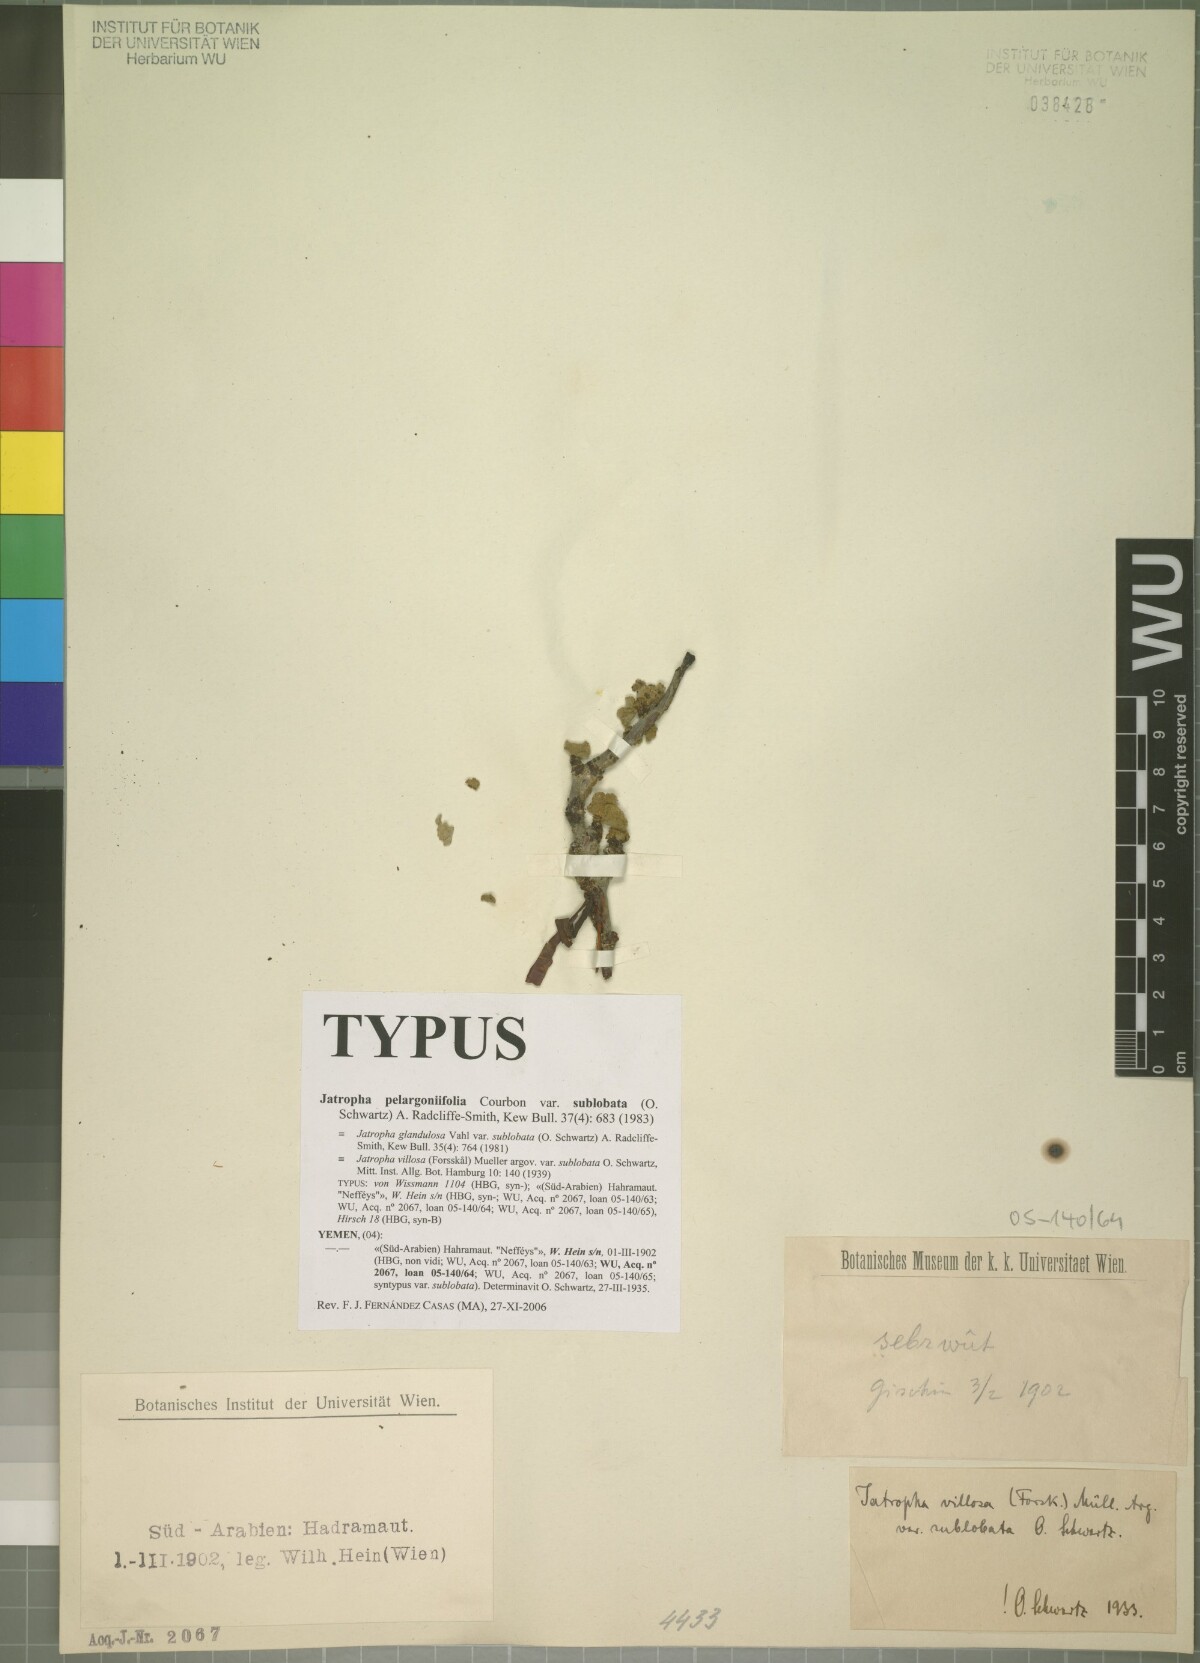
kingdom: Plantae
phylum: Tracheophyta
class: Magnoliopsida
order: Malpighiales
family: Euphorbiaceae
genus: Jatropha
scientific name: Jatropha pelargoniifolia
